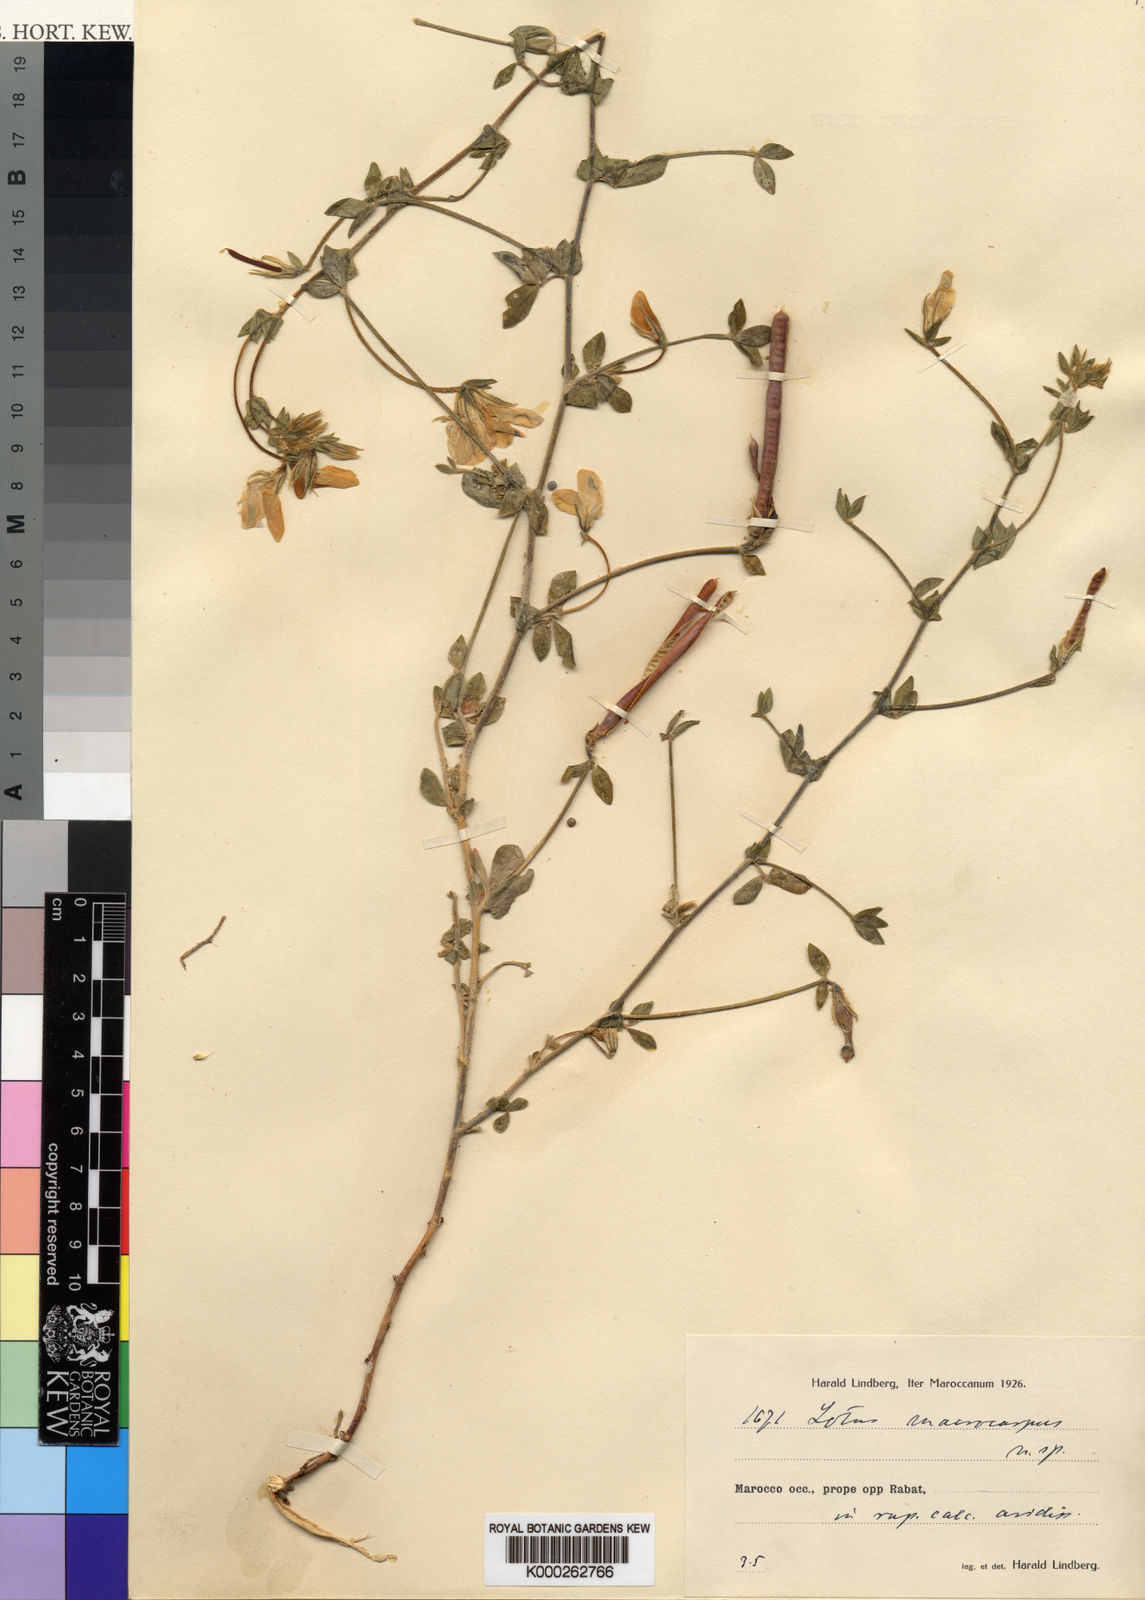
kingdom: Plantae
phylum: Tracheophyta
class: Magnoliopsida
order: Fabales
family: Fabaceae
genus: Lotus
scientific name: Lotus weilleri
